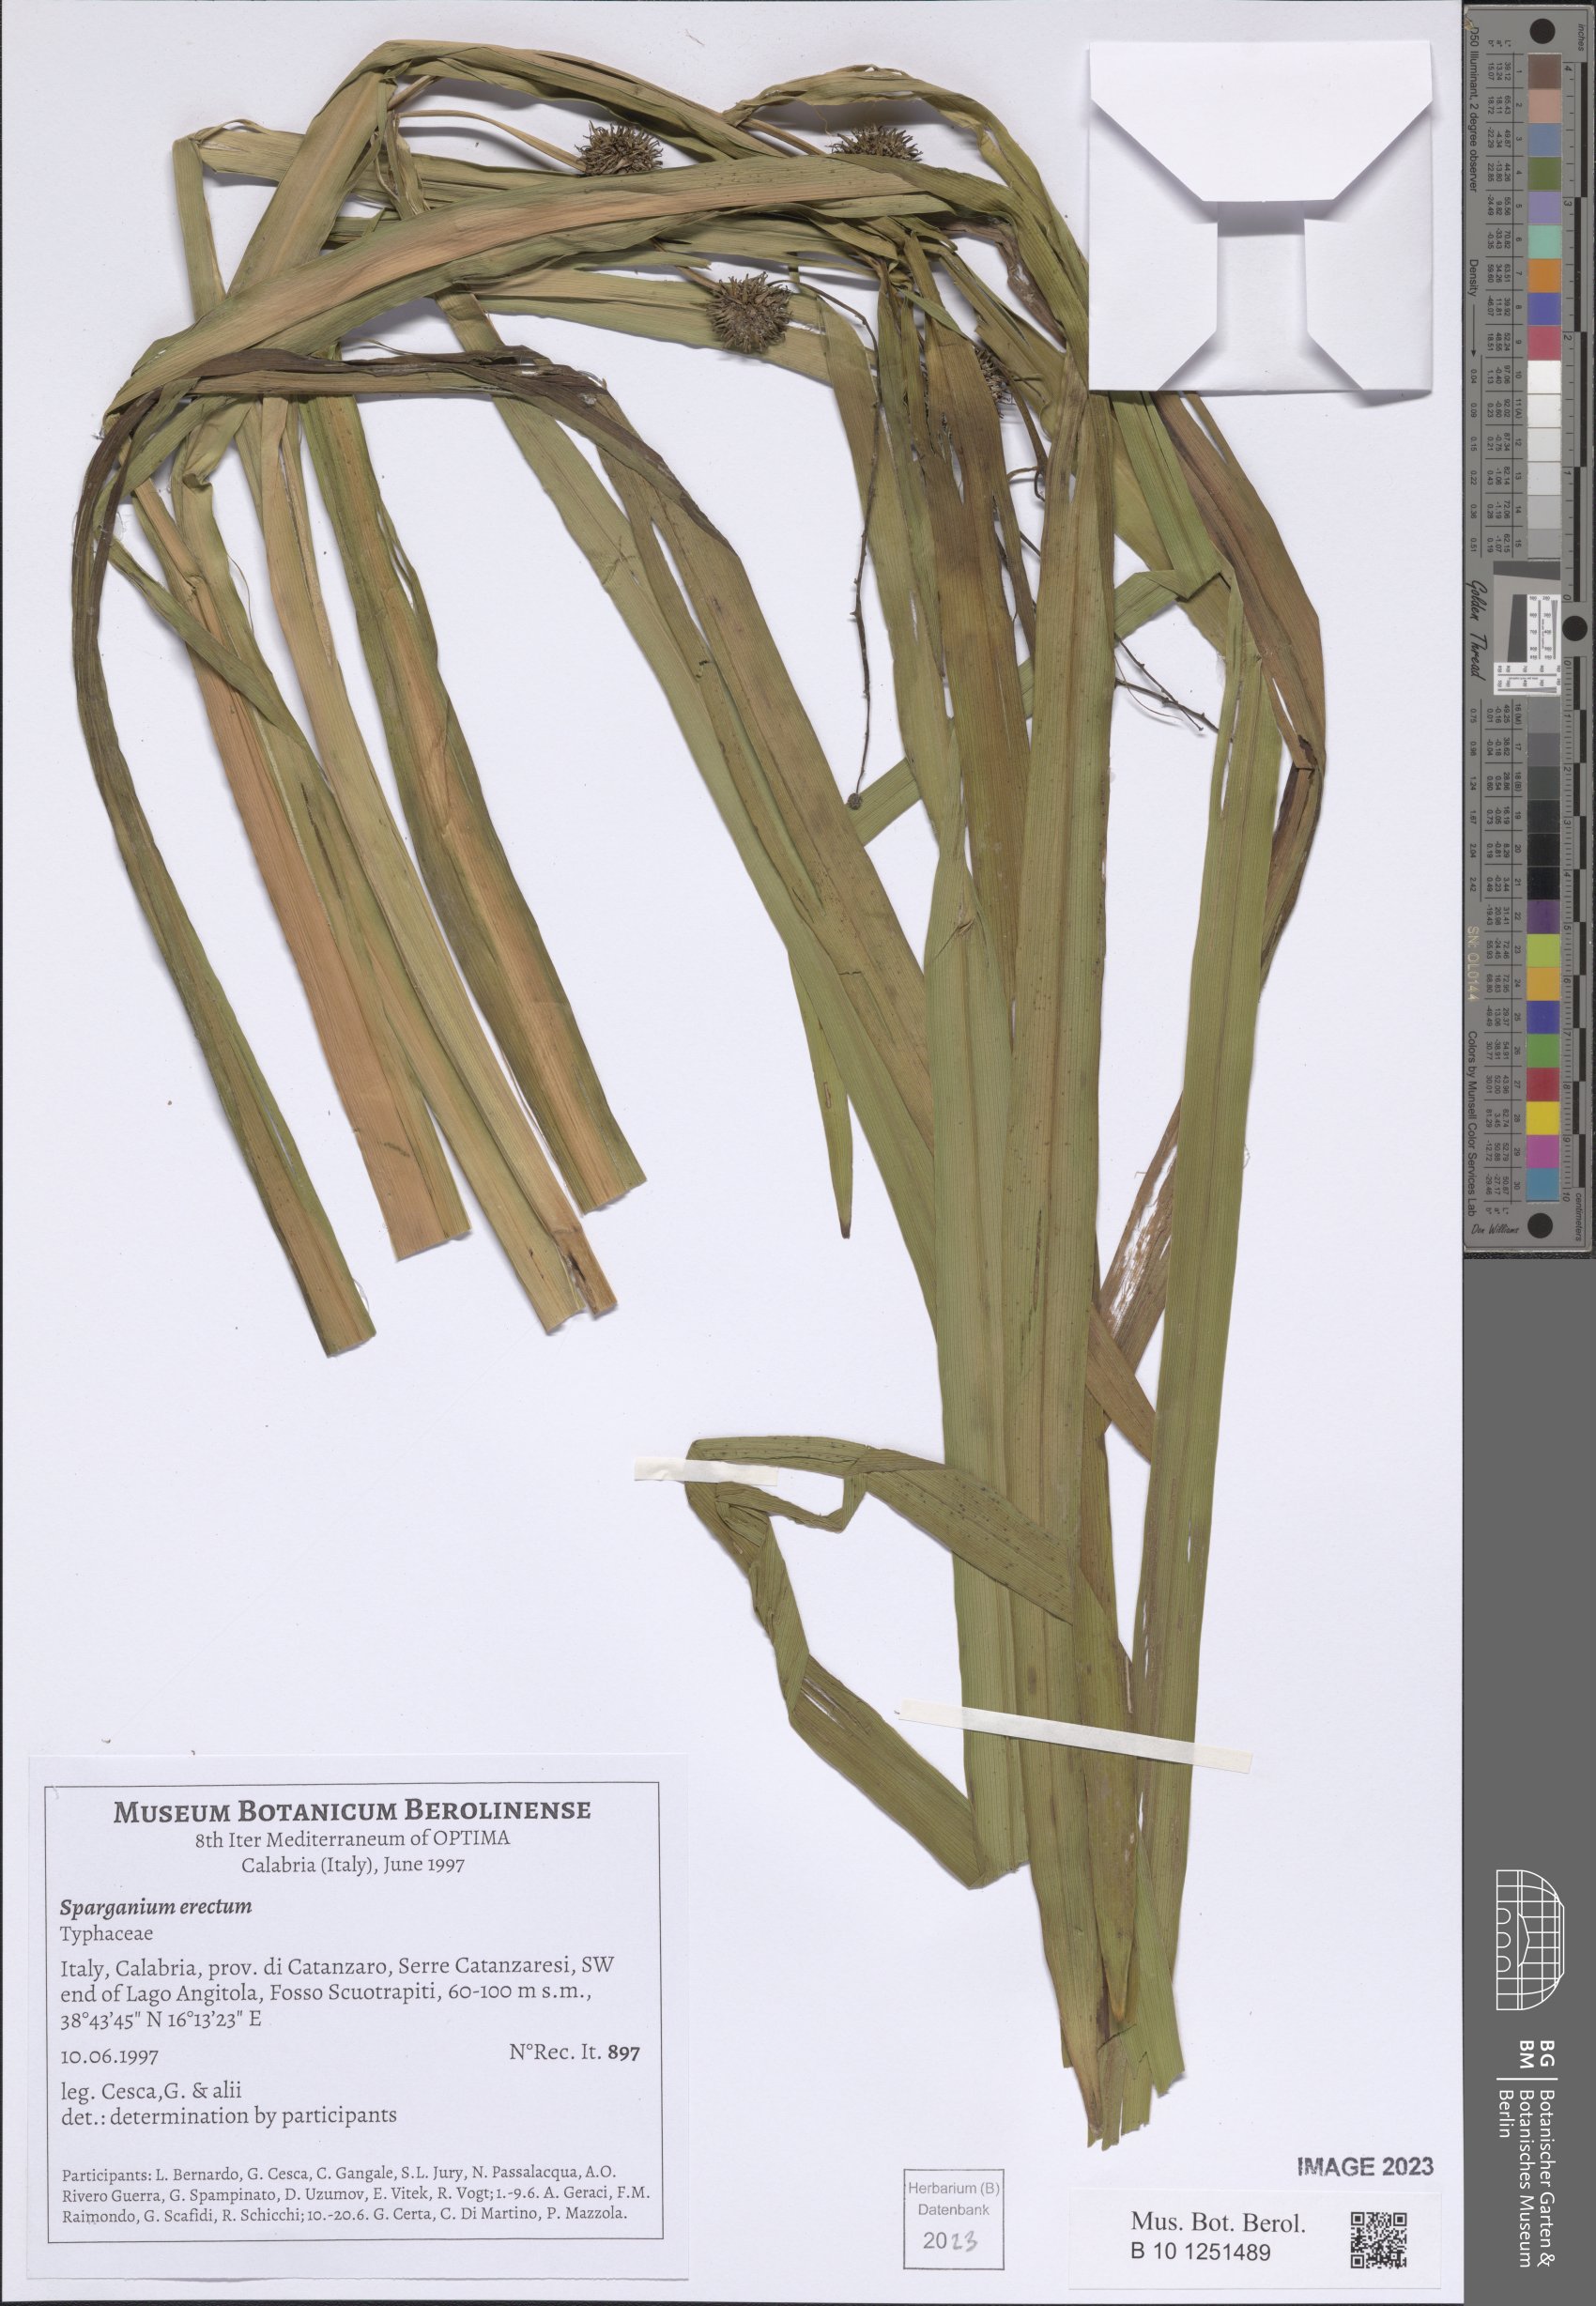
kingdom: Plantae
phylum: Tracheophyta
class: Liliopsida
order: Poales
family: Typhaceae
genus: Sparganium
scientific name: Sparganium erectum
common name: Branched bur-reed
